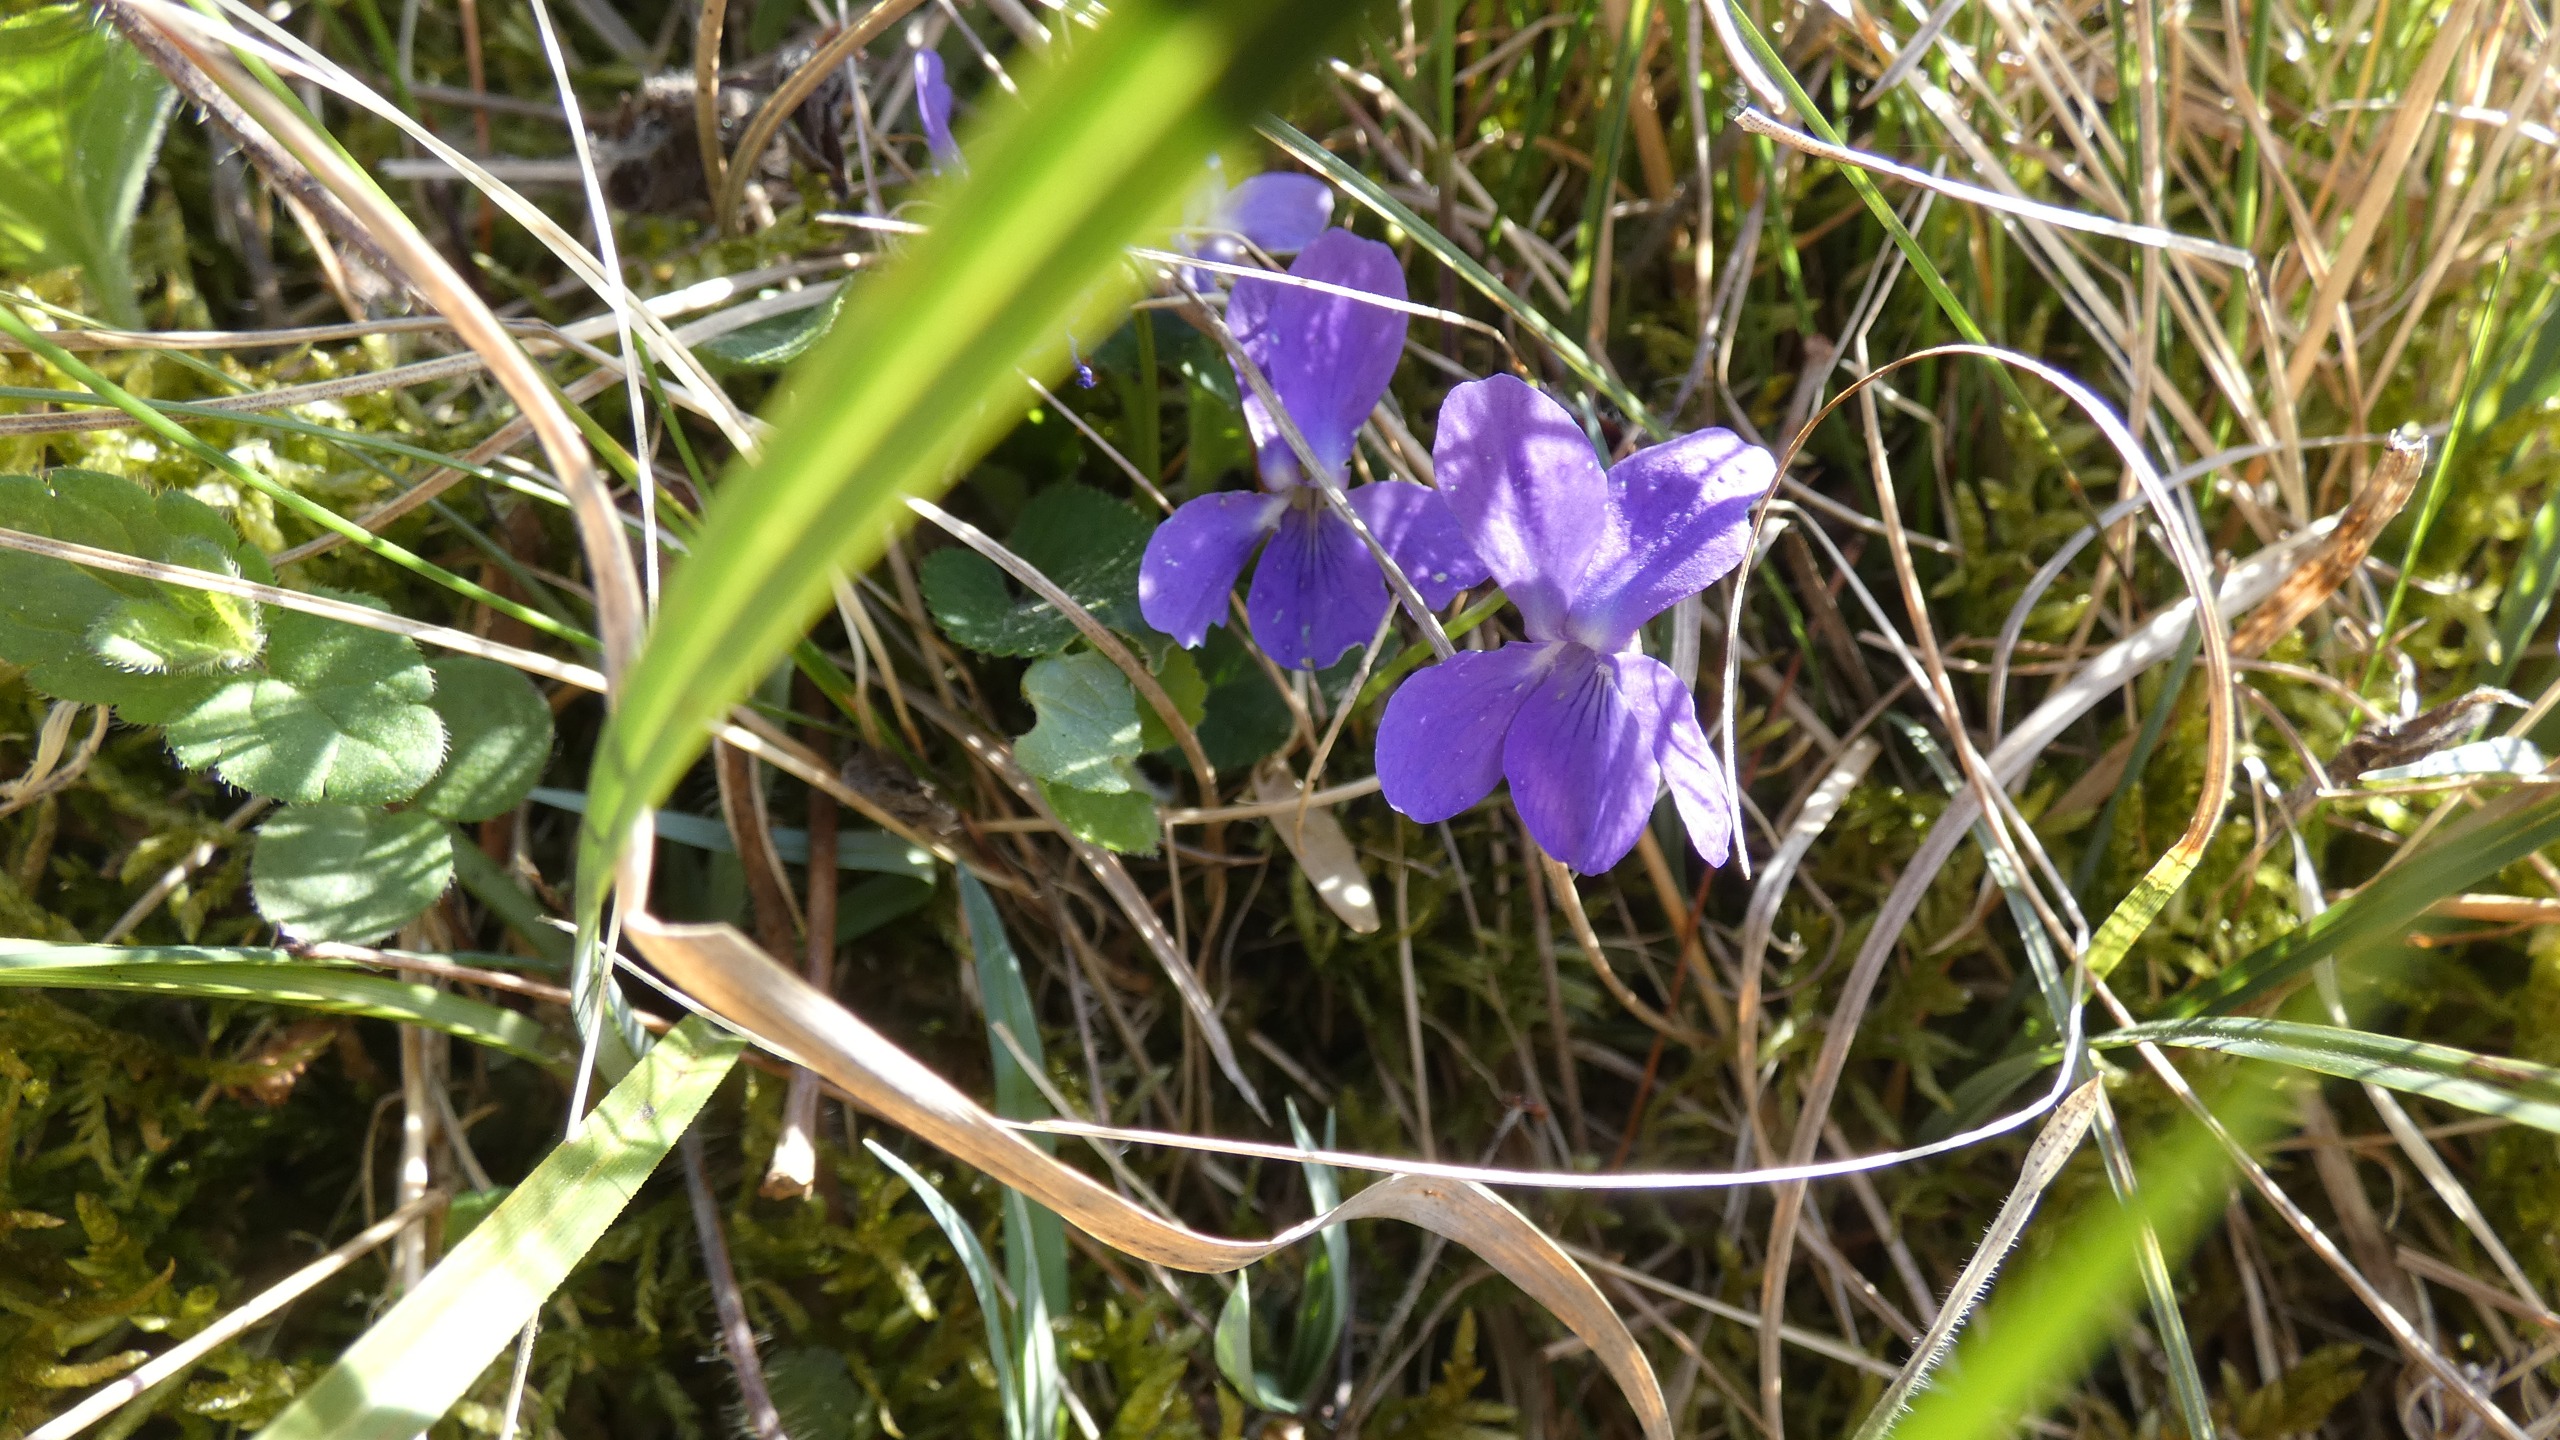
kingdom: Plantae
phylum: Tracheophyta
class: Magnoliopsida
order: Malpighiales
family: Violaceae
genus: Viola
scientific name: Viola hirta
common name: Håret viol
